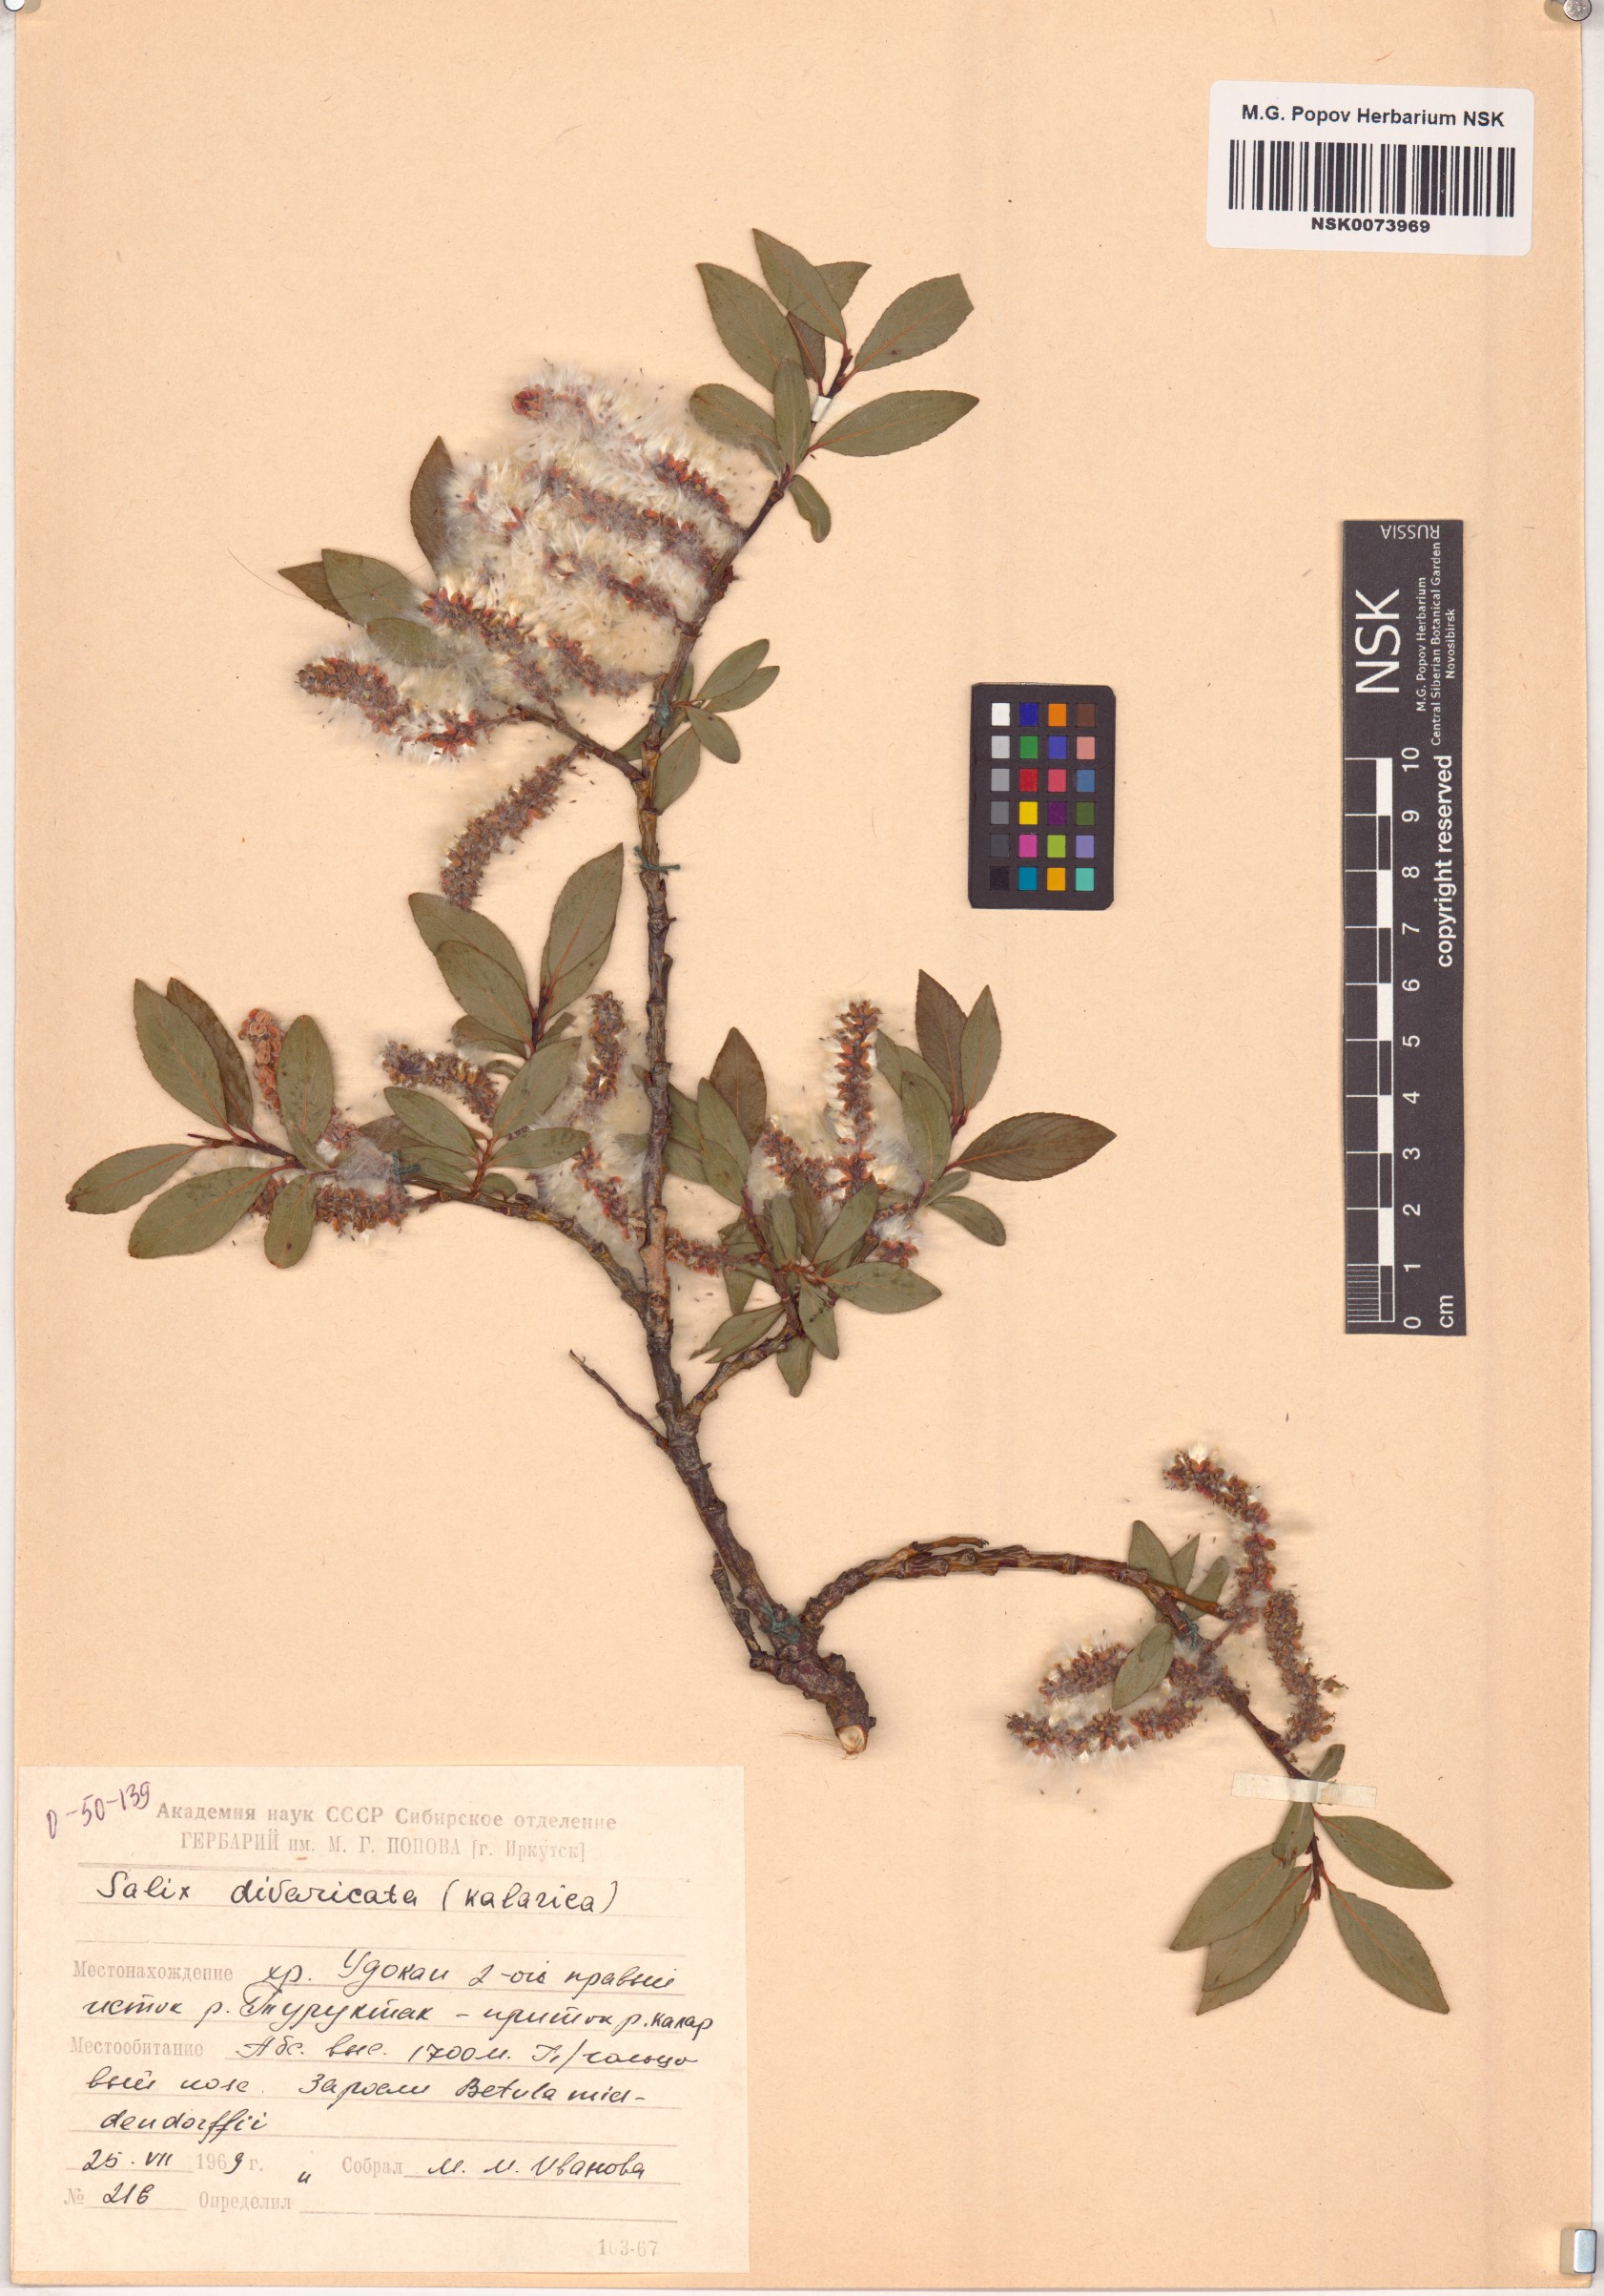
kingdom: Plantae
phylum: Tracheophyta
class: Magnoliopsida
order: Malpighiales
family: Salicaceae
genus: Salix
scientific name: Salix divaricata
